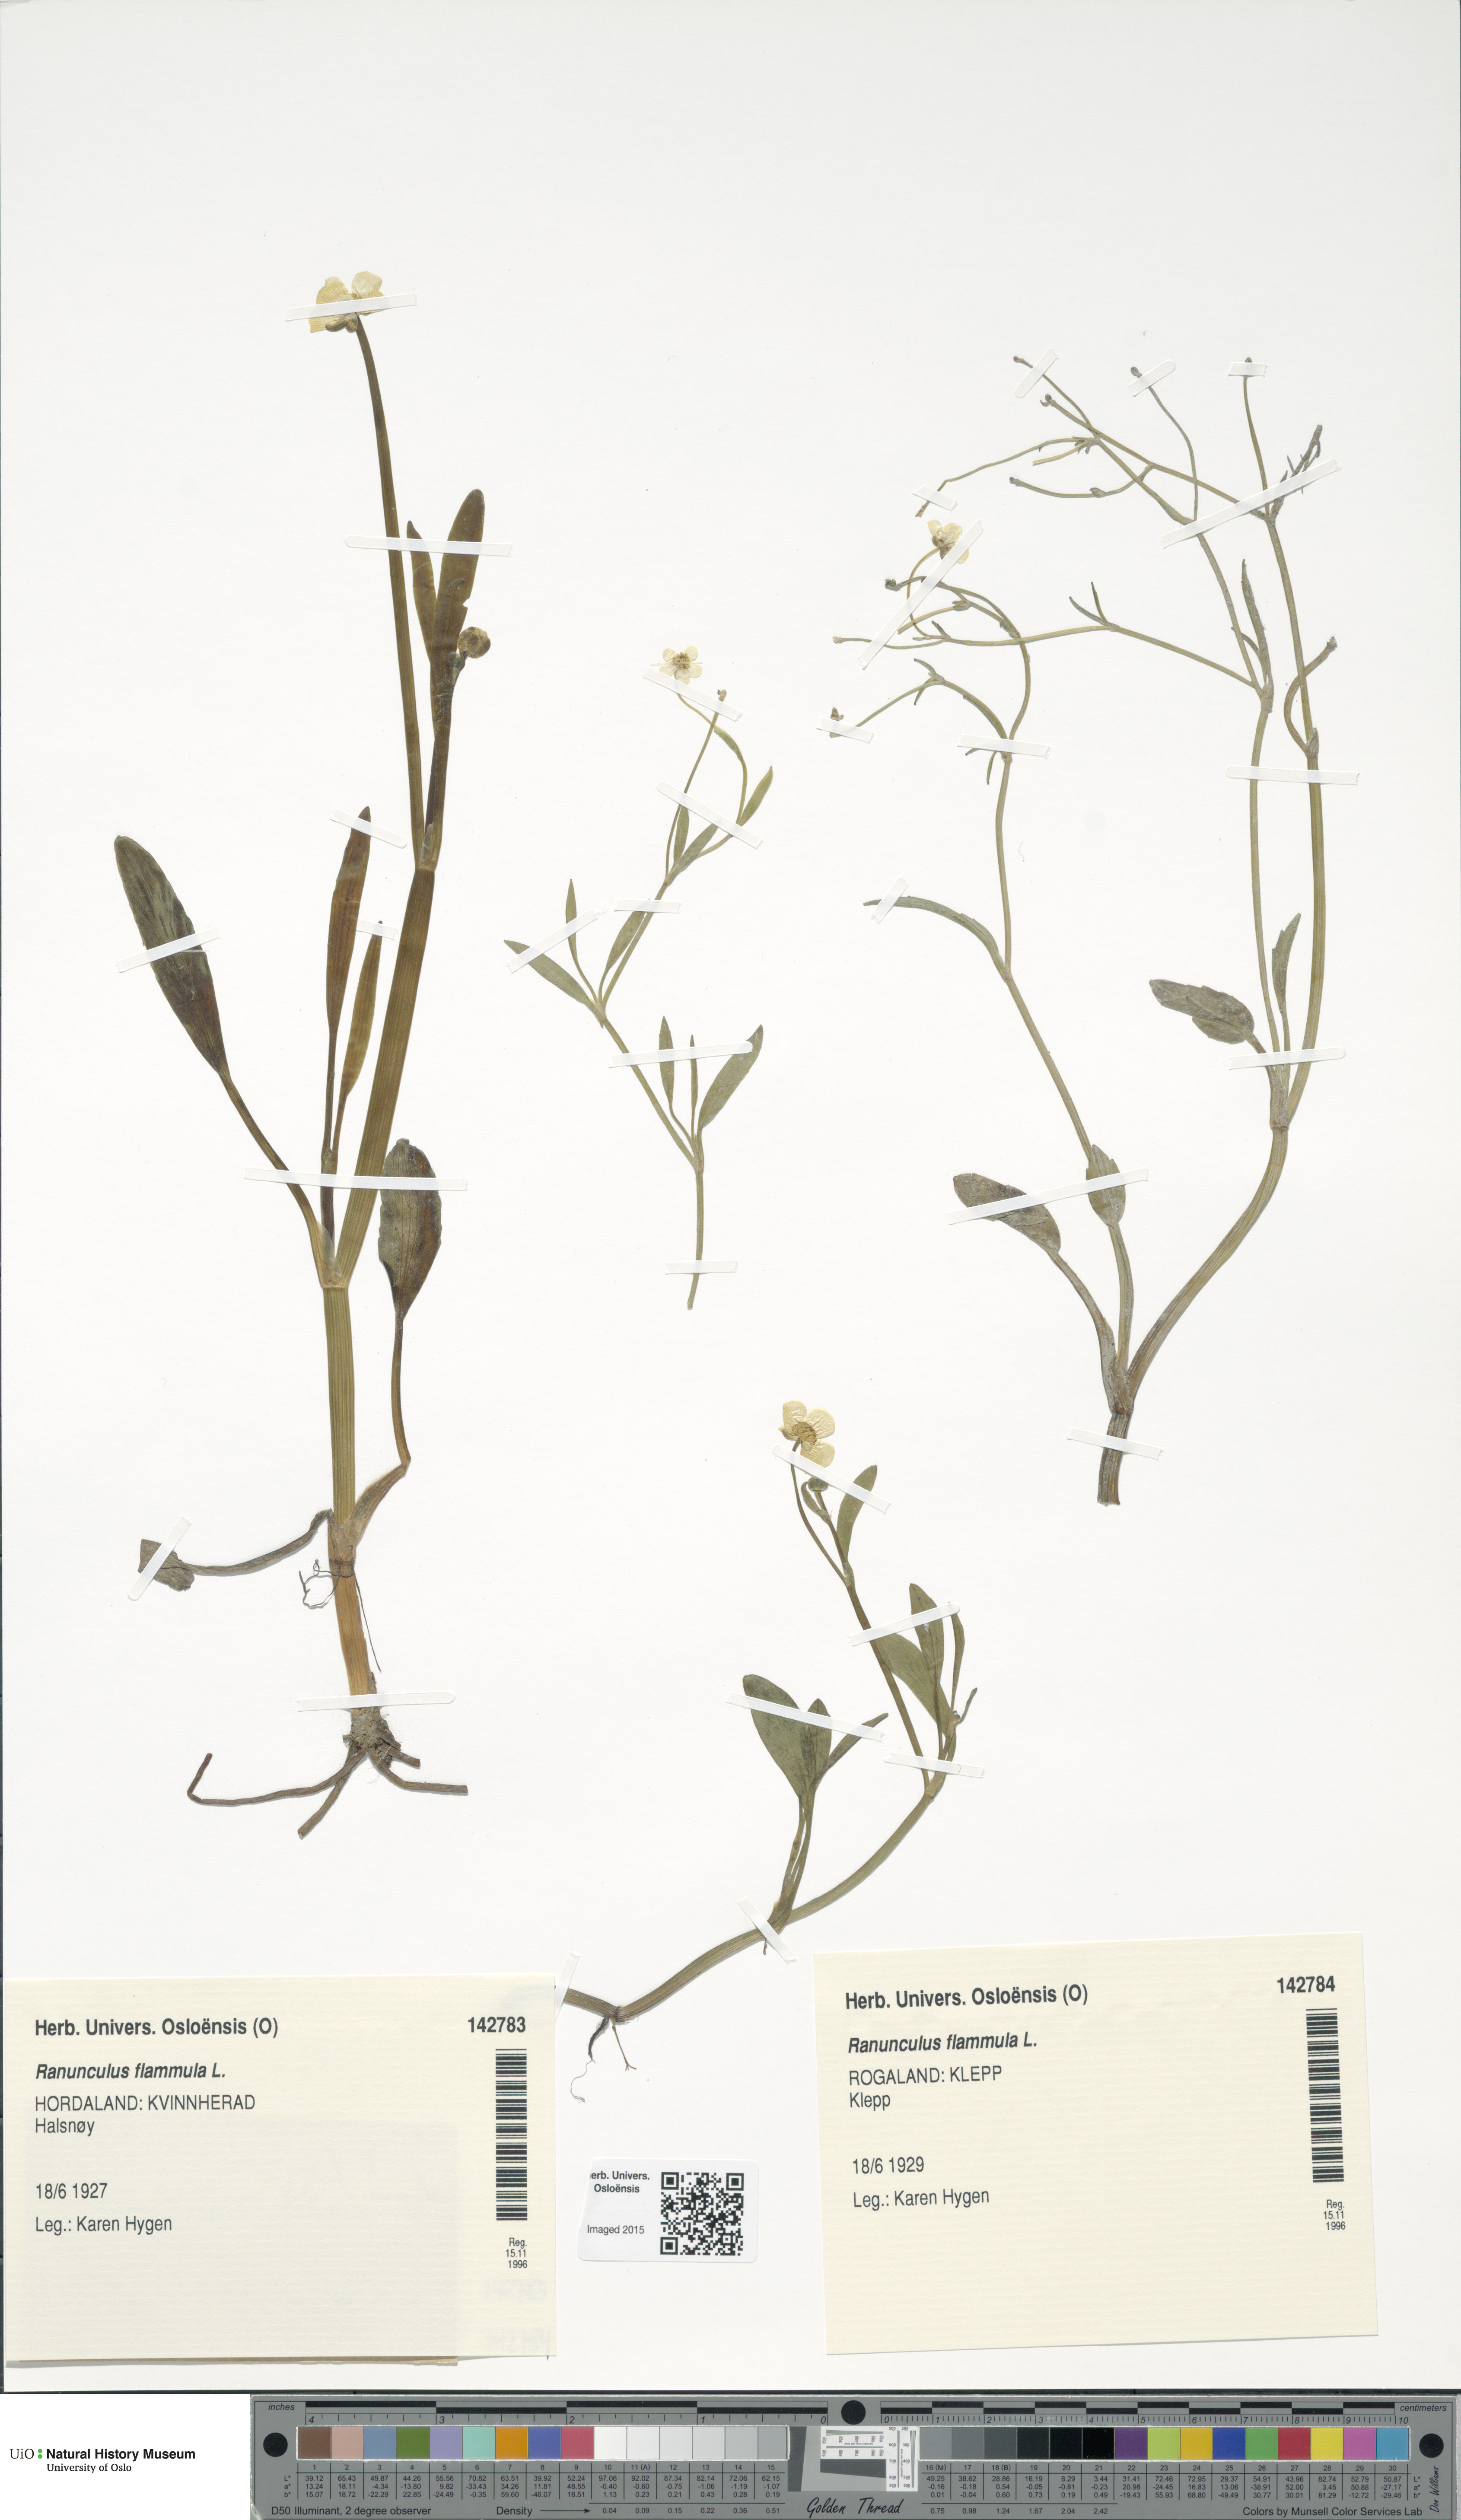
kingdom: Plantae
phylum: Tracheophyta
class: Magnoliopsida
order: Ranunculales
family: Ranunculaceae
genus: Ranunculus
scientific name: Ranunculus flammula
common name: Lesser spearwort
